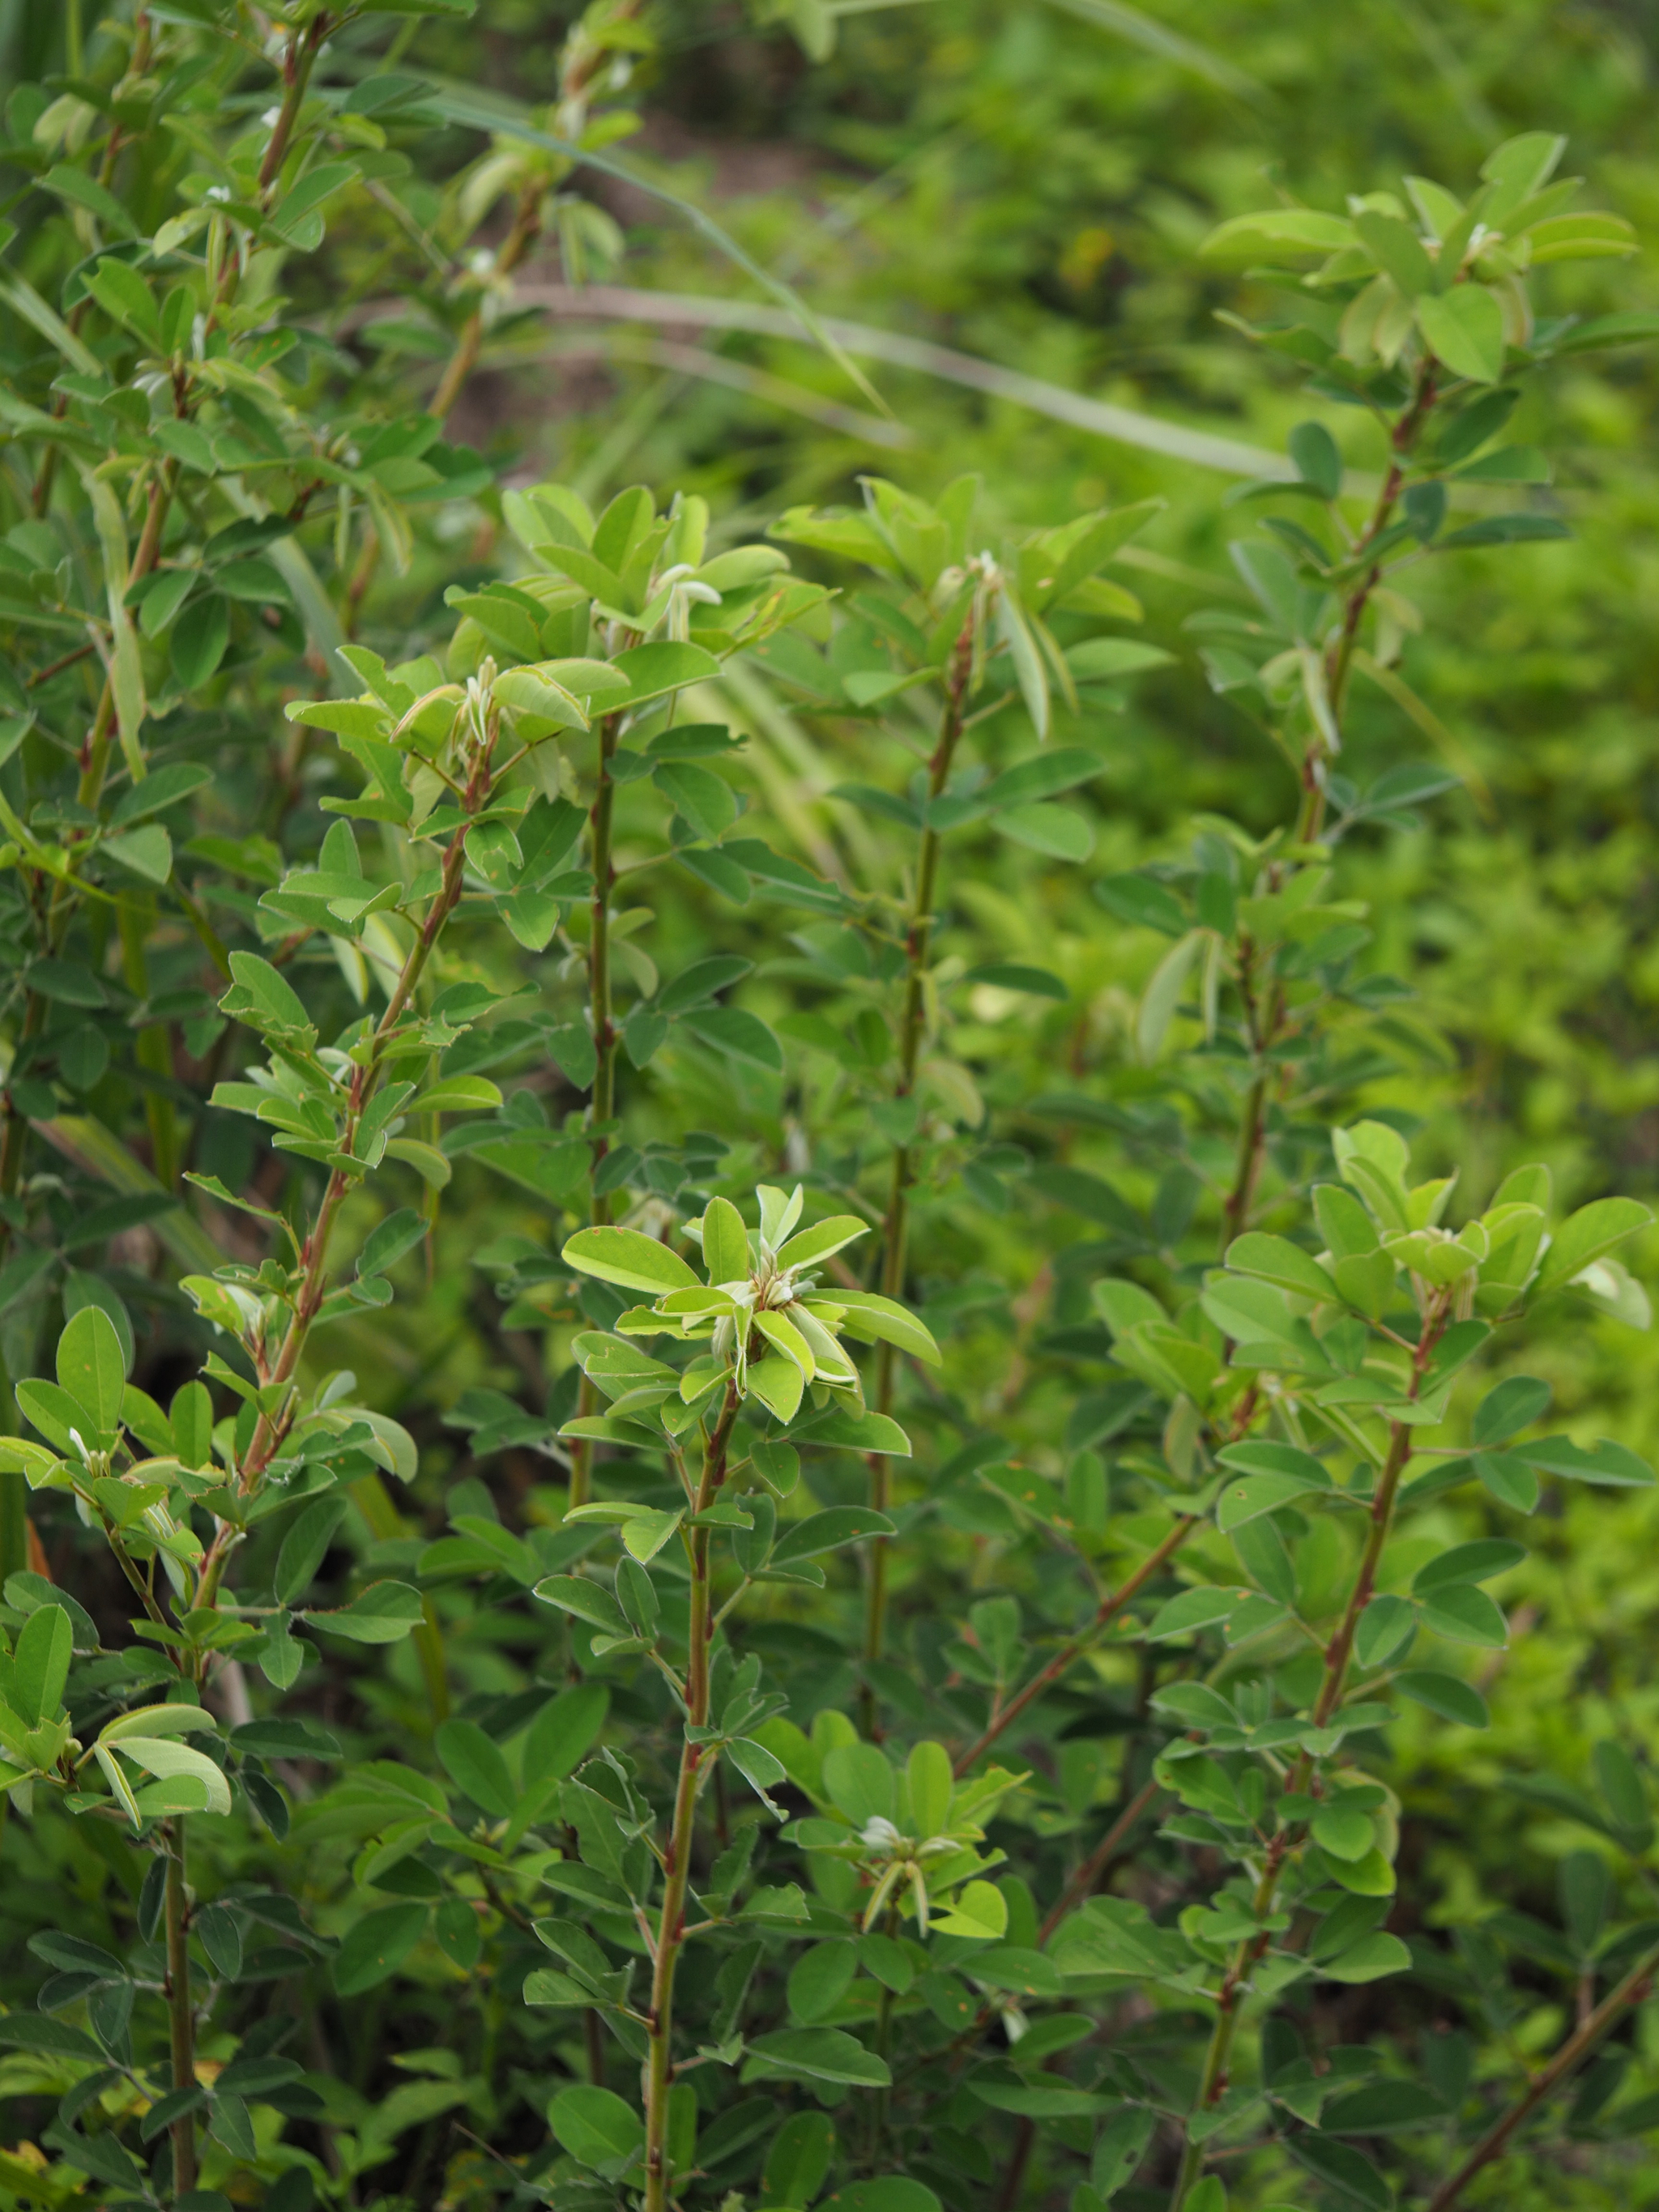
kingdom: Plantae
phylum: Tracheophyta
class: Magnoliopsida
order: Fabales
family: Fabaceae
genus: Grona
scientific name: Grona heterocarpos
